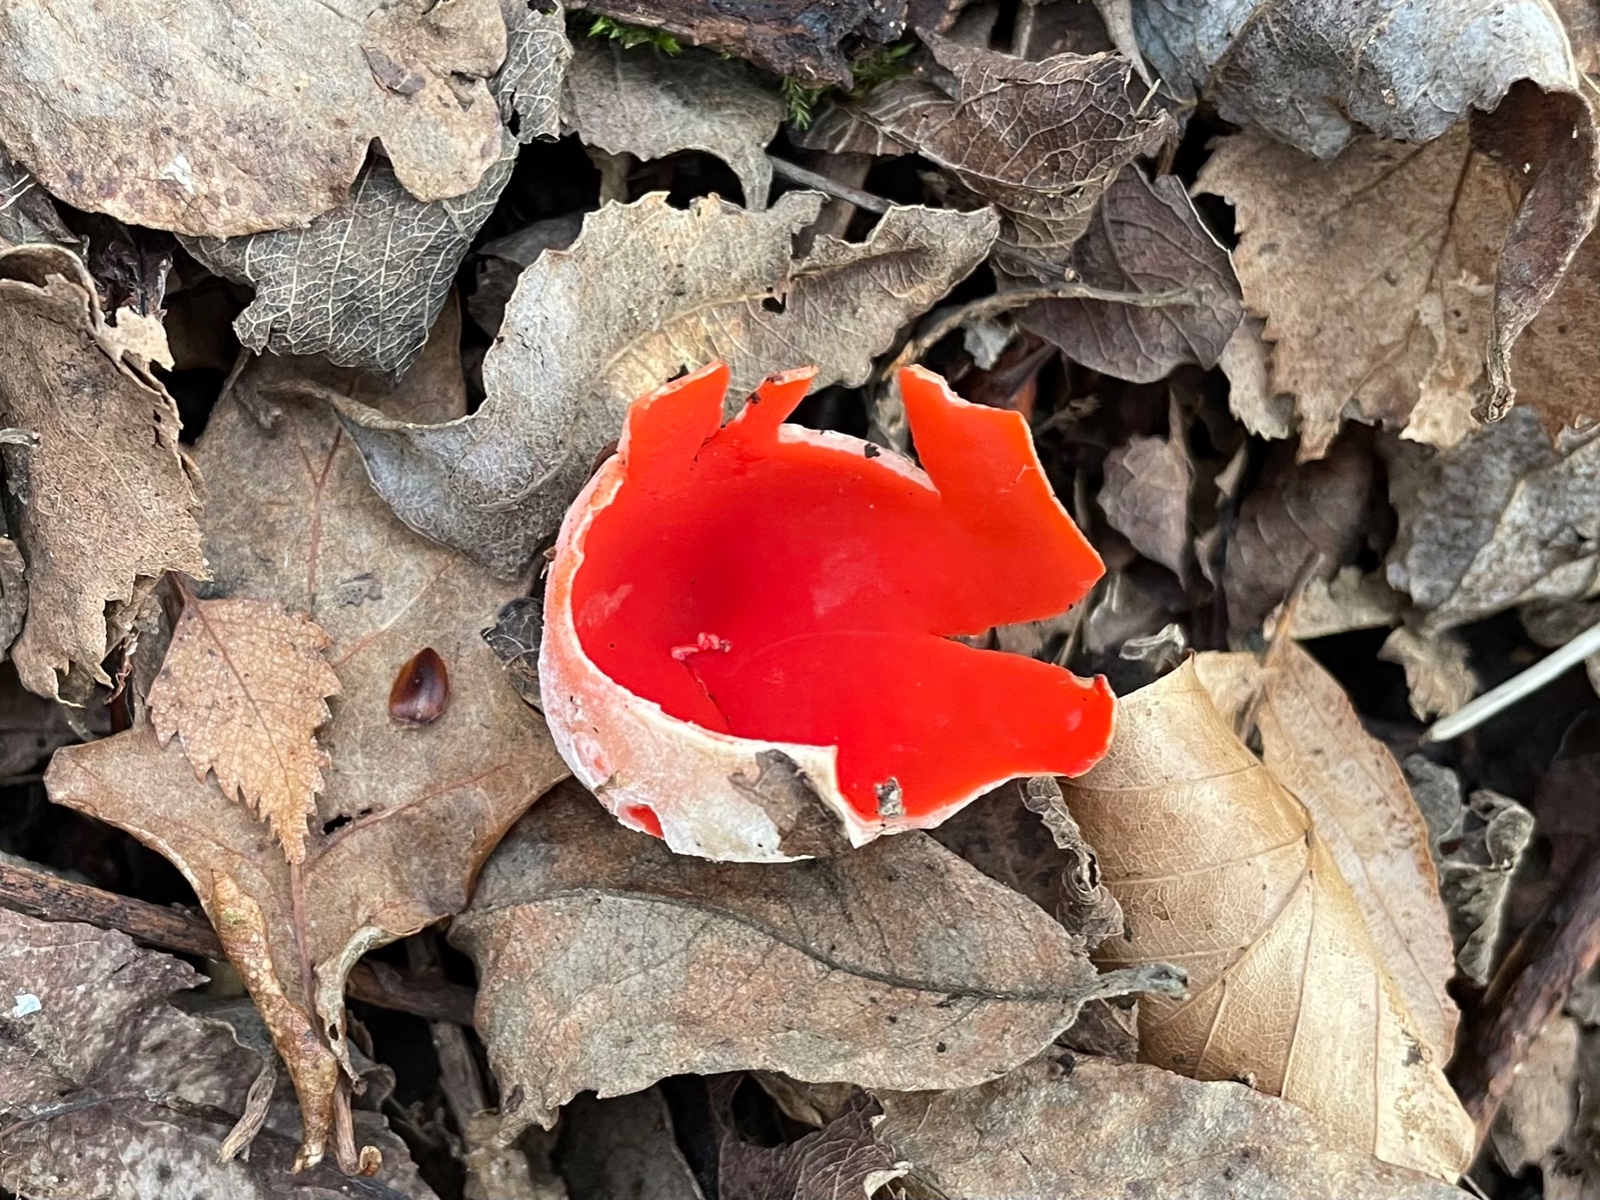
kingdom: Fungi
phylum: Ascomycota
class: Pezizomycetes
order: Pezizales
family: Sarcoscyphaceae
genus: Sarcoscypha
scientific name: Sarcoscypha austriaca
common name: krølhåret pragtbæger
